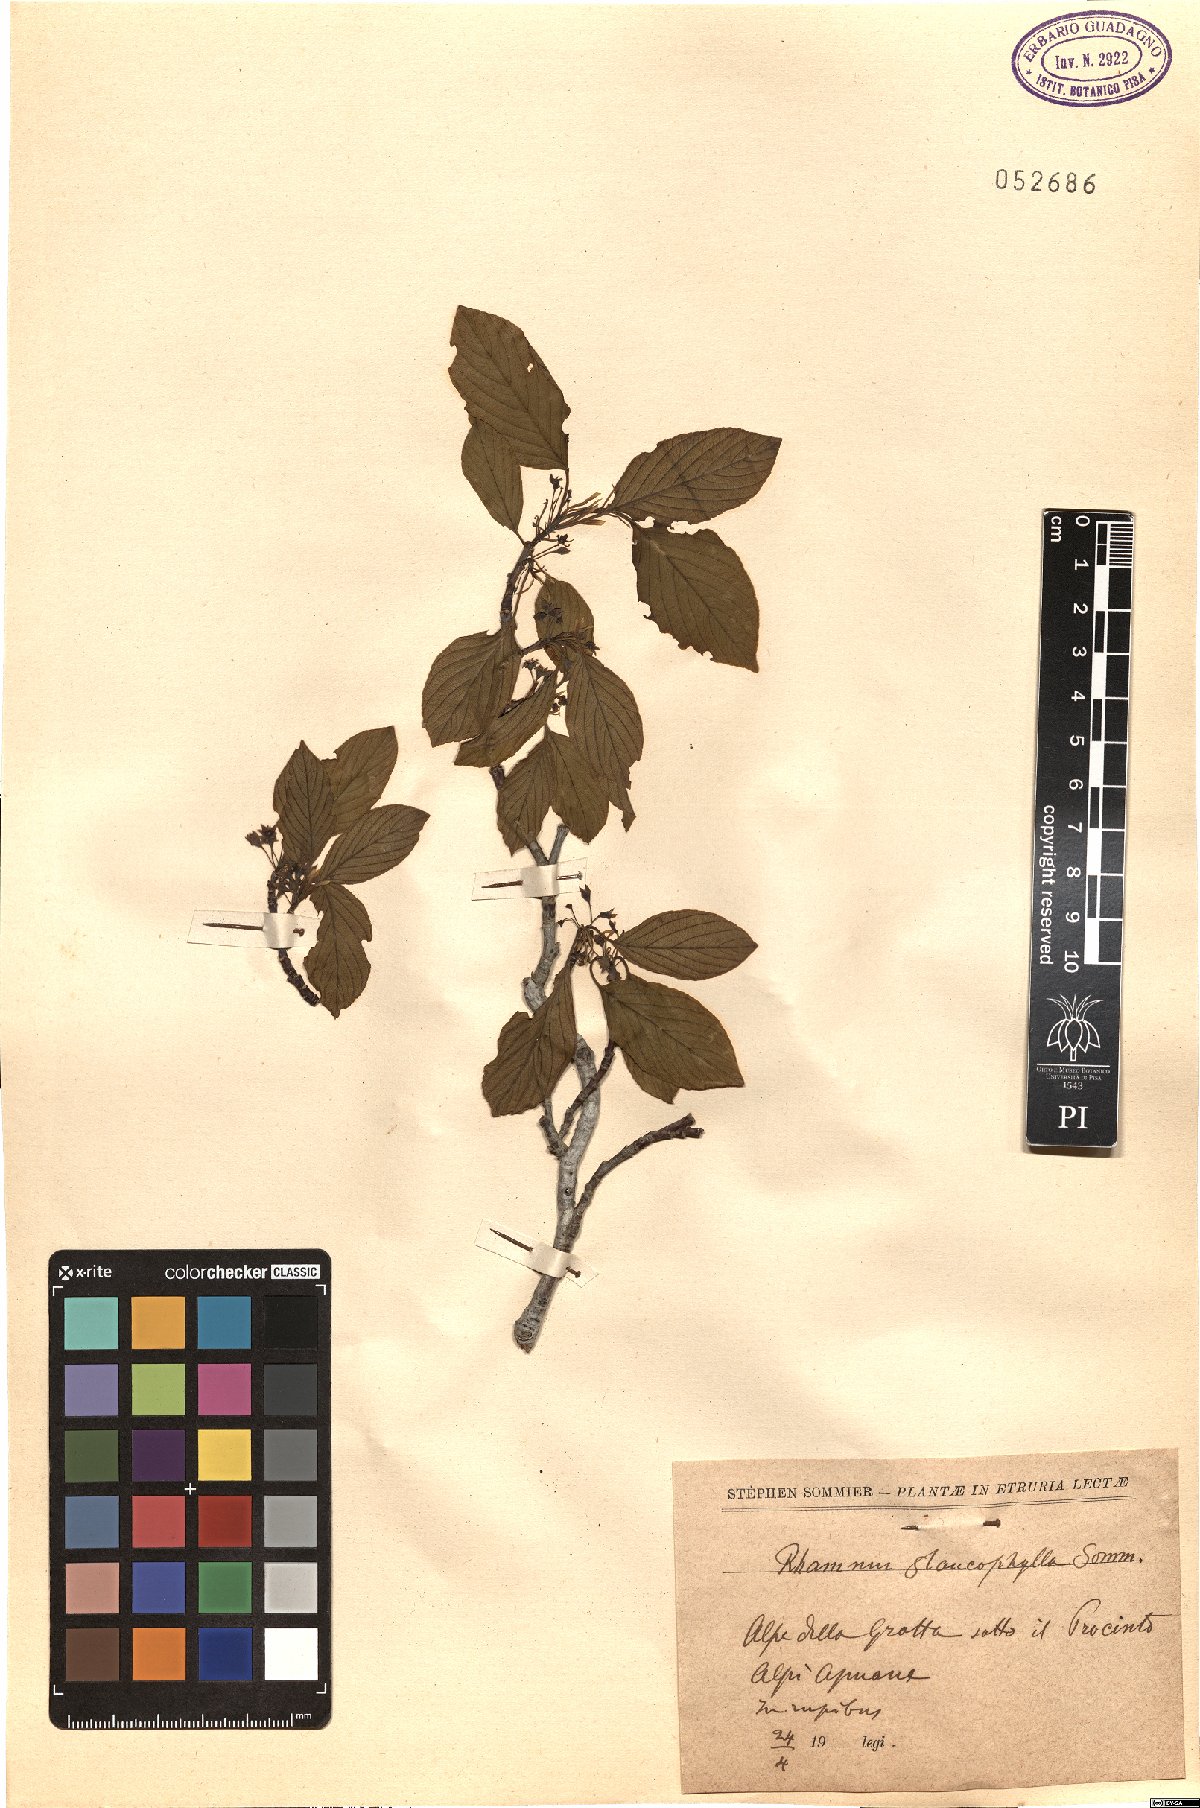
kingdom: Plantae
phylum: Tracheophyta
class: Magnoliopsida
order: Rosales
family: Rhamnaceae
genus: Atadinus
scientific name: Atadinus glaucophyllus
